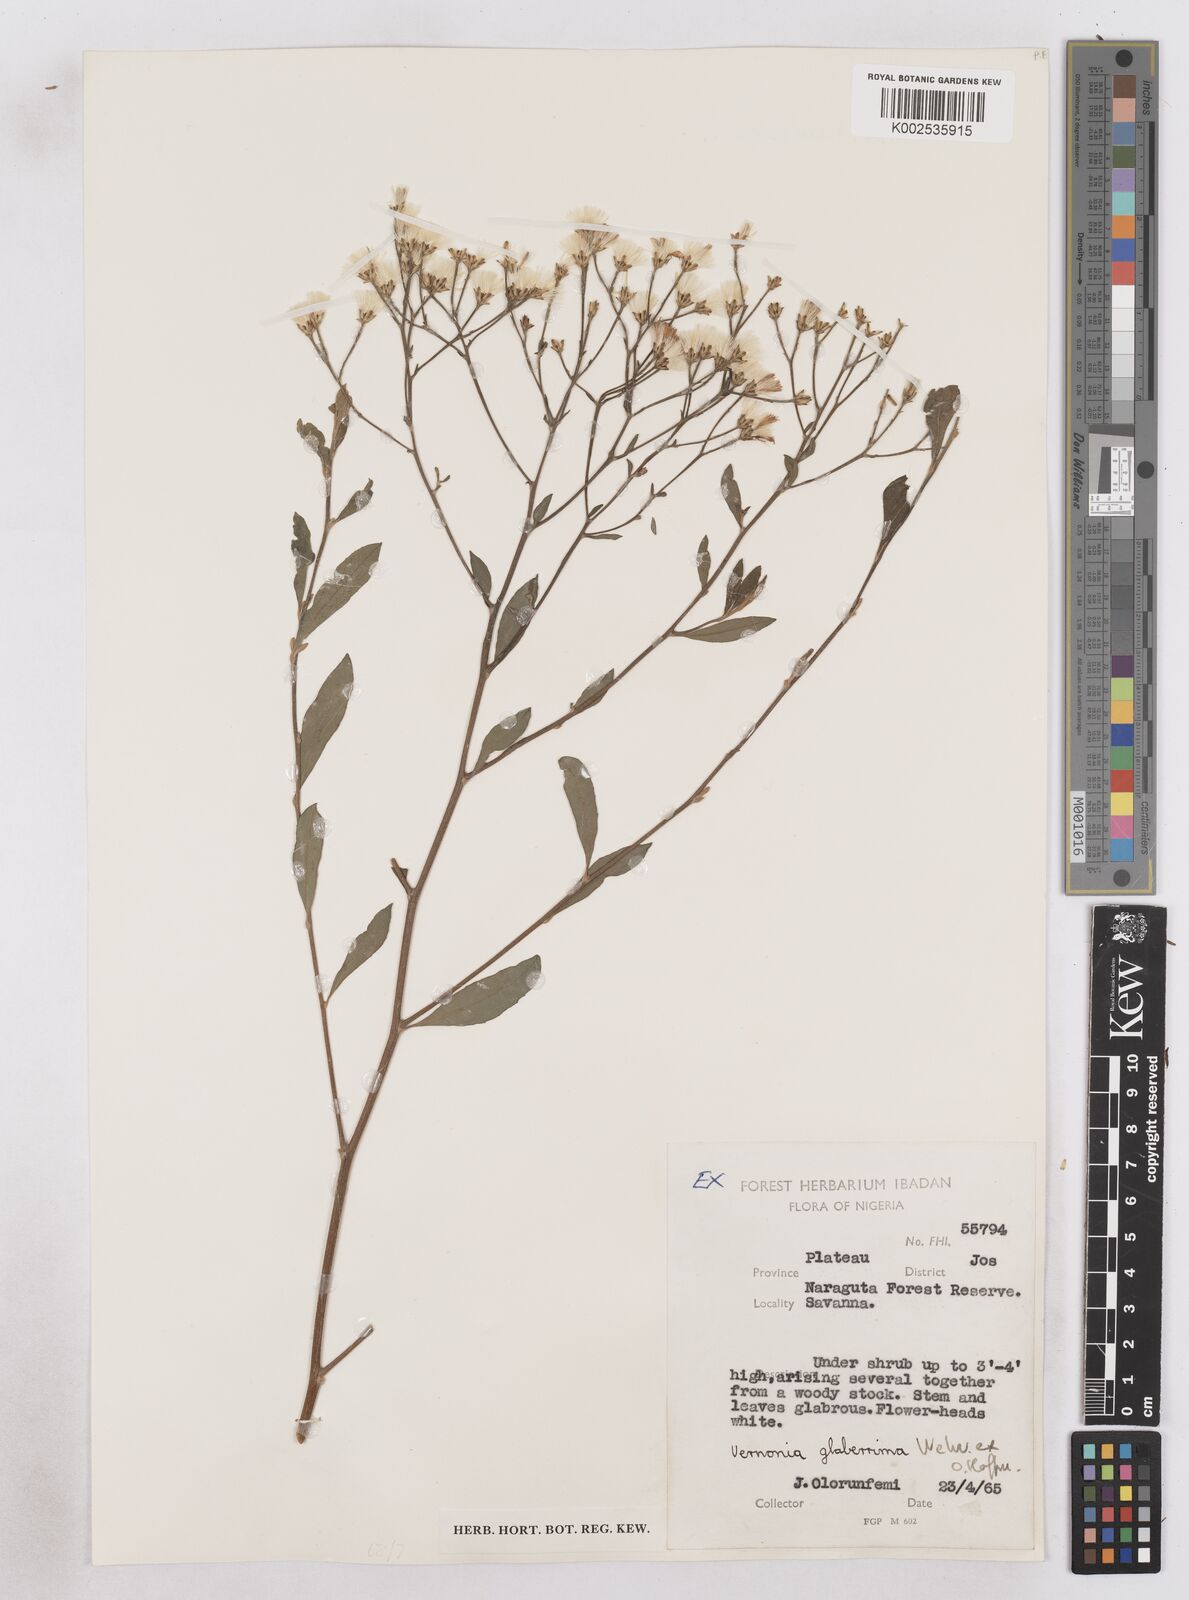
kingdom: Plantae
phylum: Tracheophyta
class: Magnoliopsida
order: Asterales
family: Asteraceae
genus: Gymnanthemum
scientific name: Gymnanthemum glaberrimum
